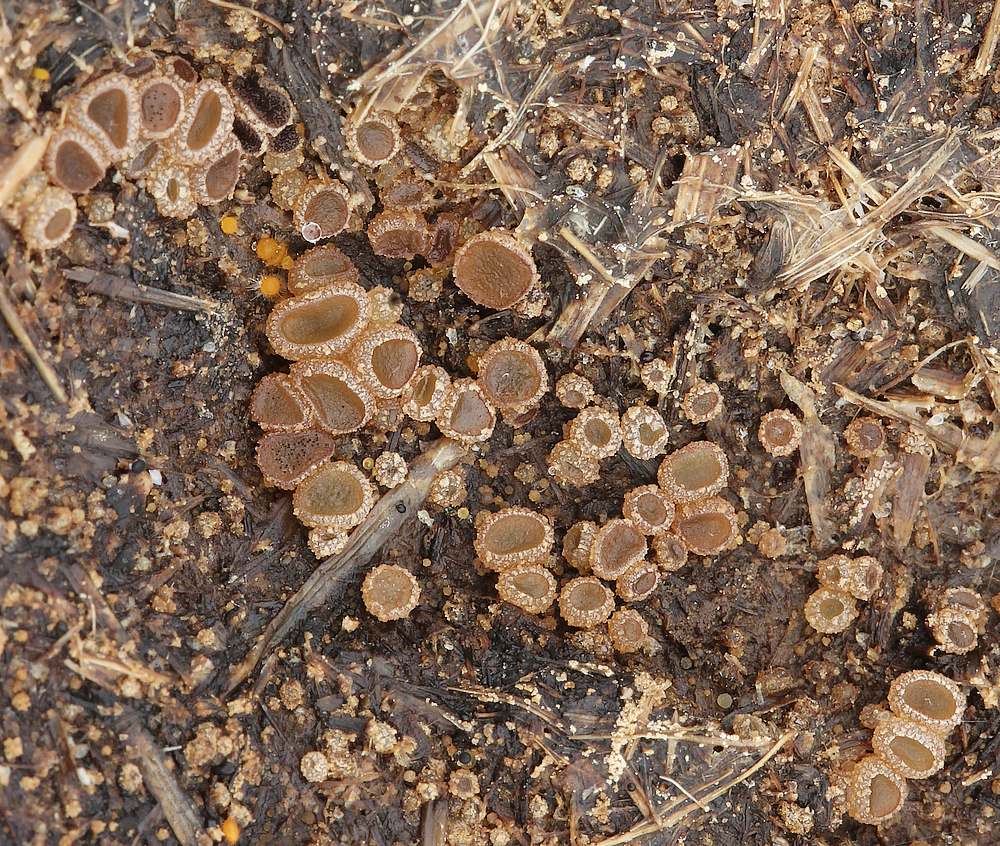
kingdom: Fungi
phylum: Ascomycota
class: Pezizomycetes
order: Pezizales
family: Ascobolaceae
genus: Ascobolus
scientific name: Ascobolus furfuraceus
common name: almindelig prikbæger
